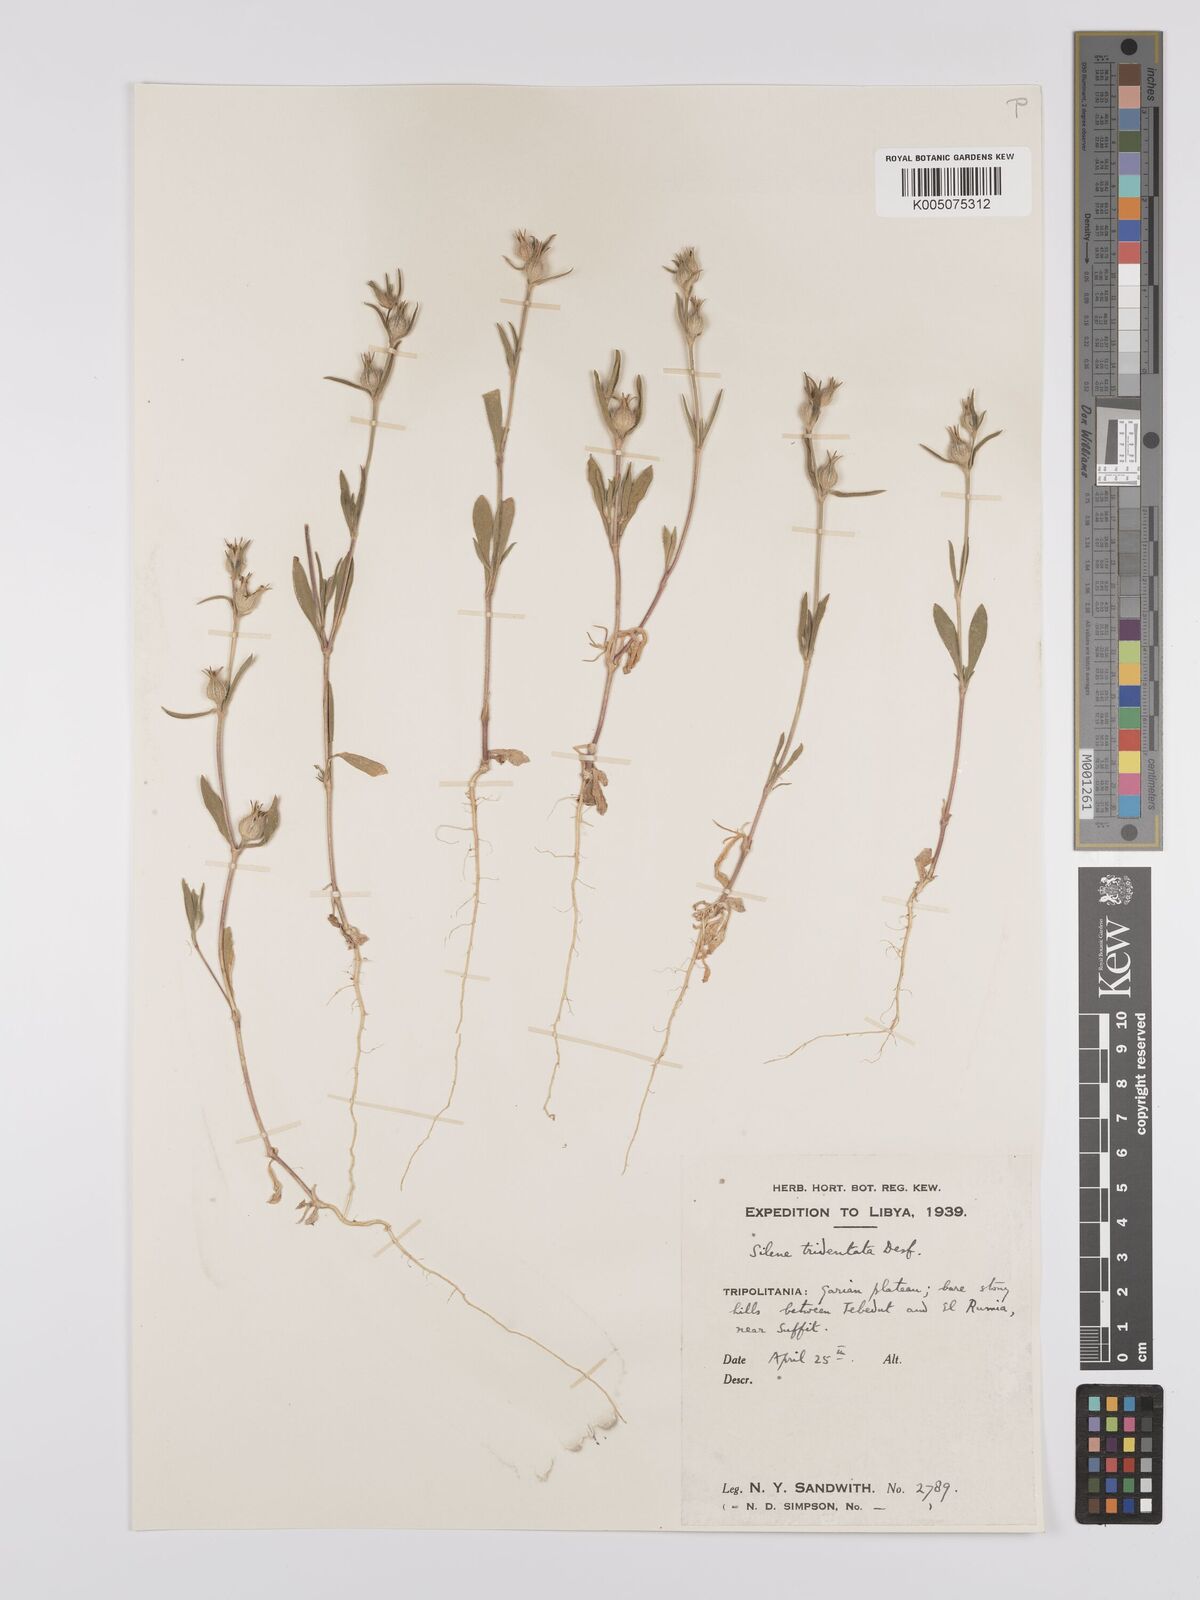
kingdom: Plantae
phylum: Tracheophyta
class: Magnoliopsida
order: Caryophyllales
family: Caryophyllaceae
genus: Silene
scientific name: Silene tridentata
